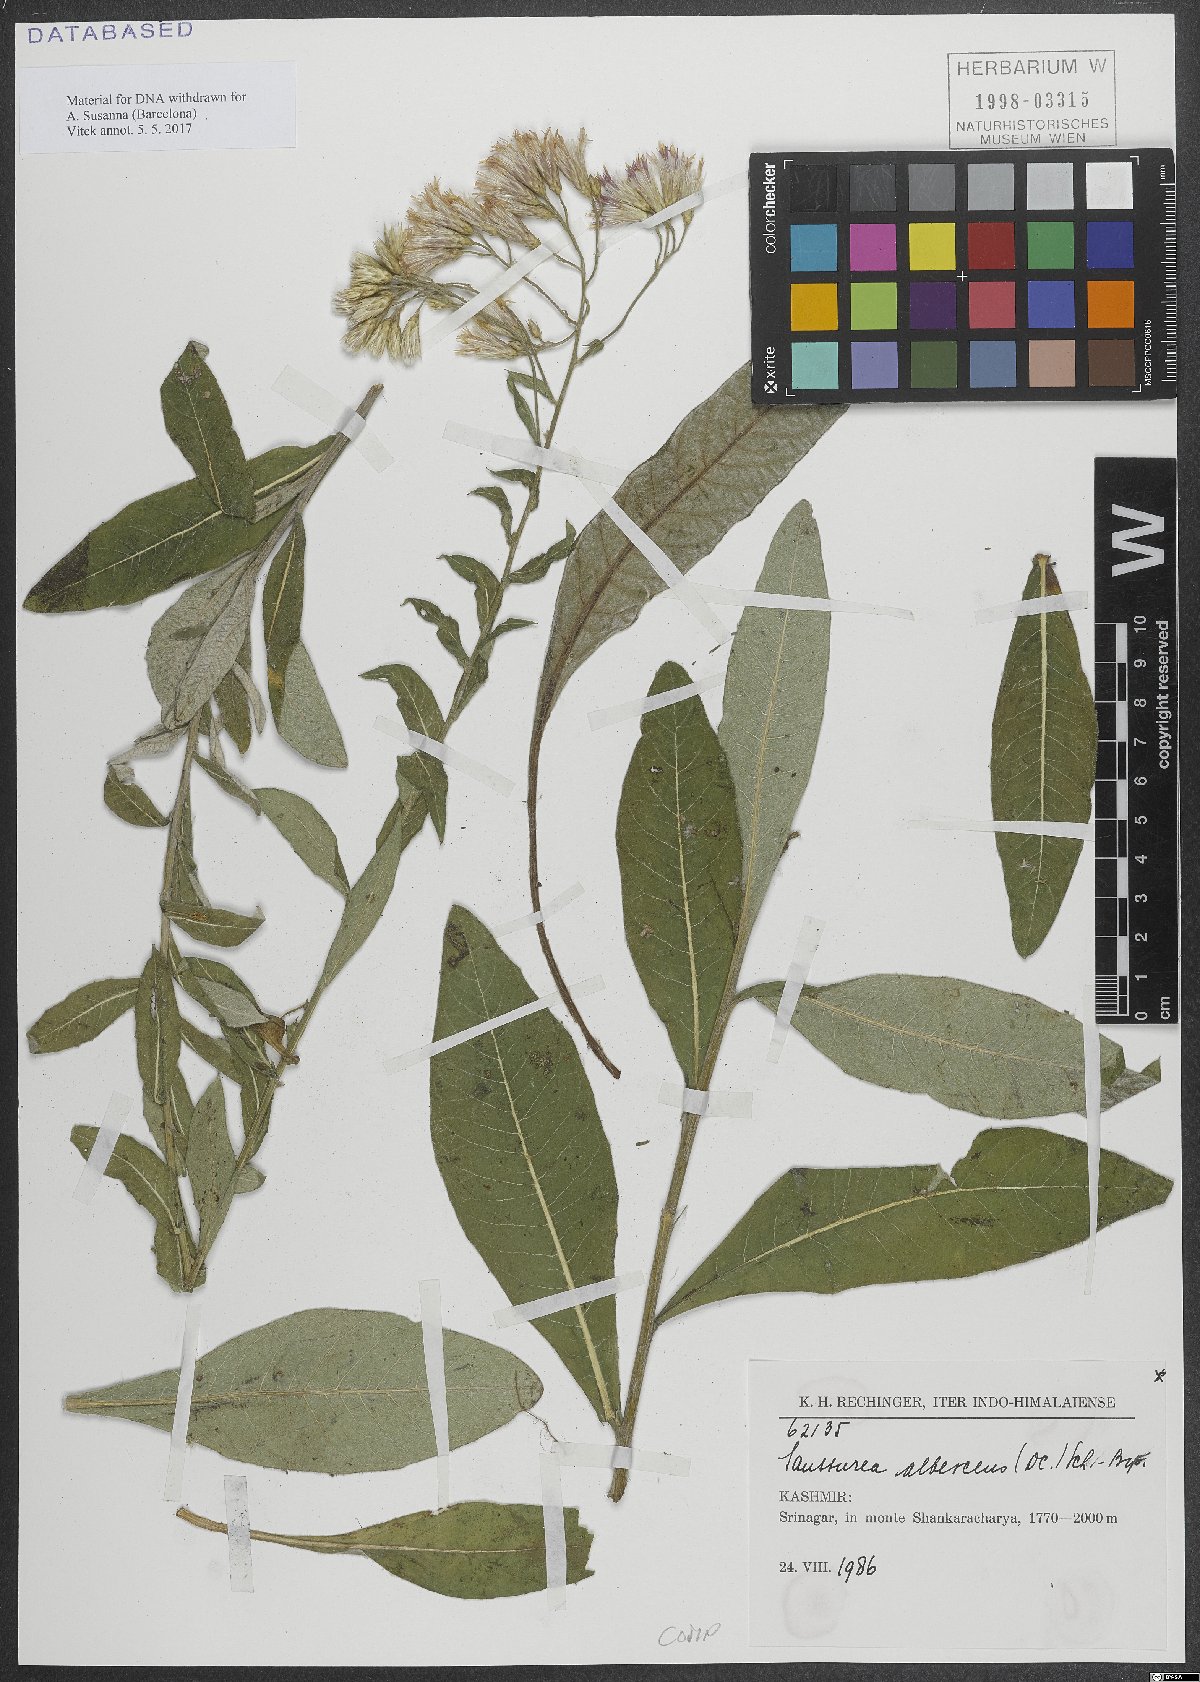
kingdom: Plantae
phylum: Tracheophyta
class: Magnoliopsida
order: Asterales
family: Asteraceae
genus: Jurinea
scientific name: Jurinea albescens
